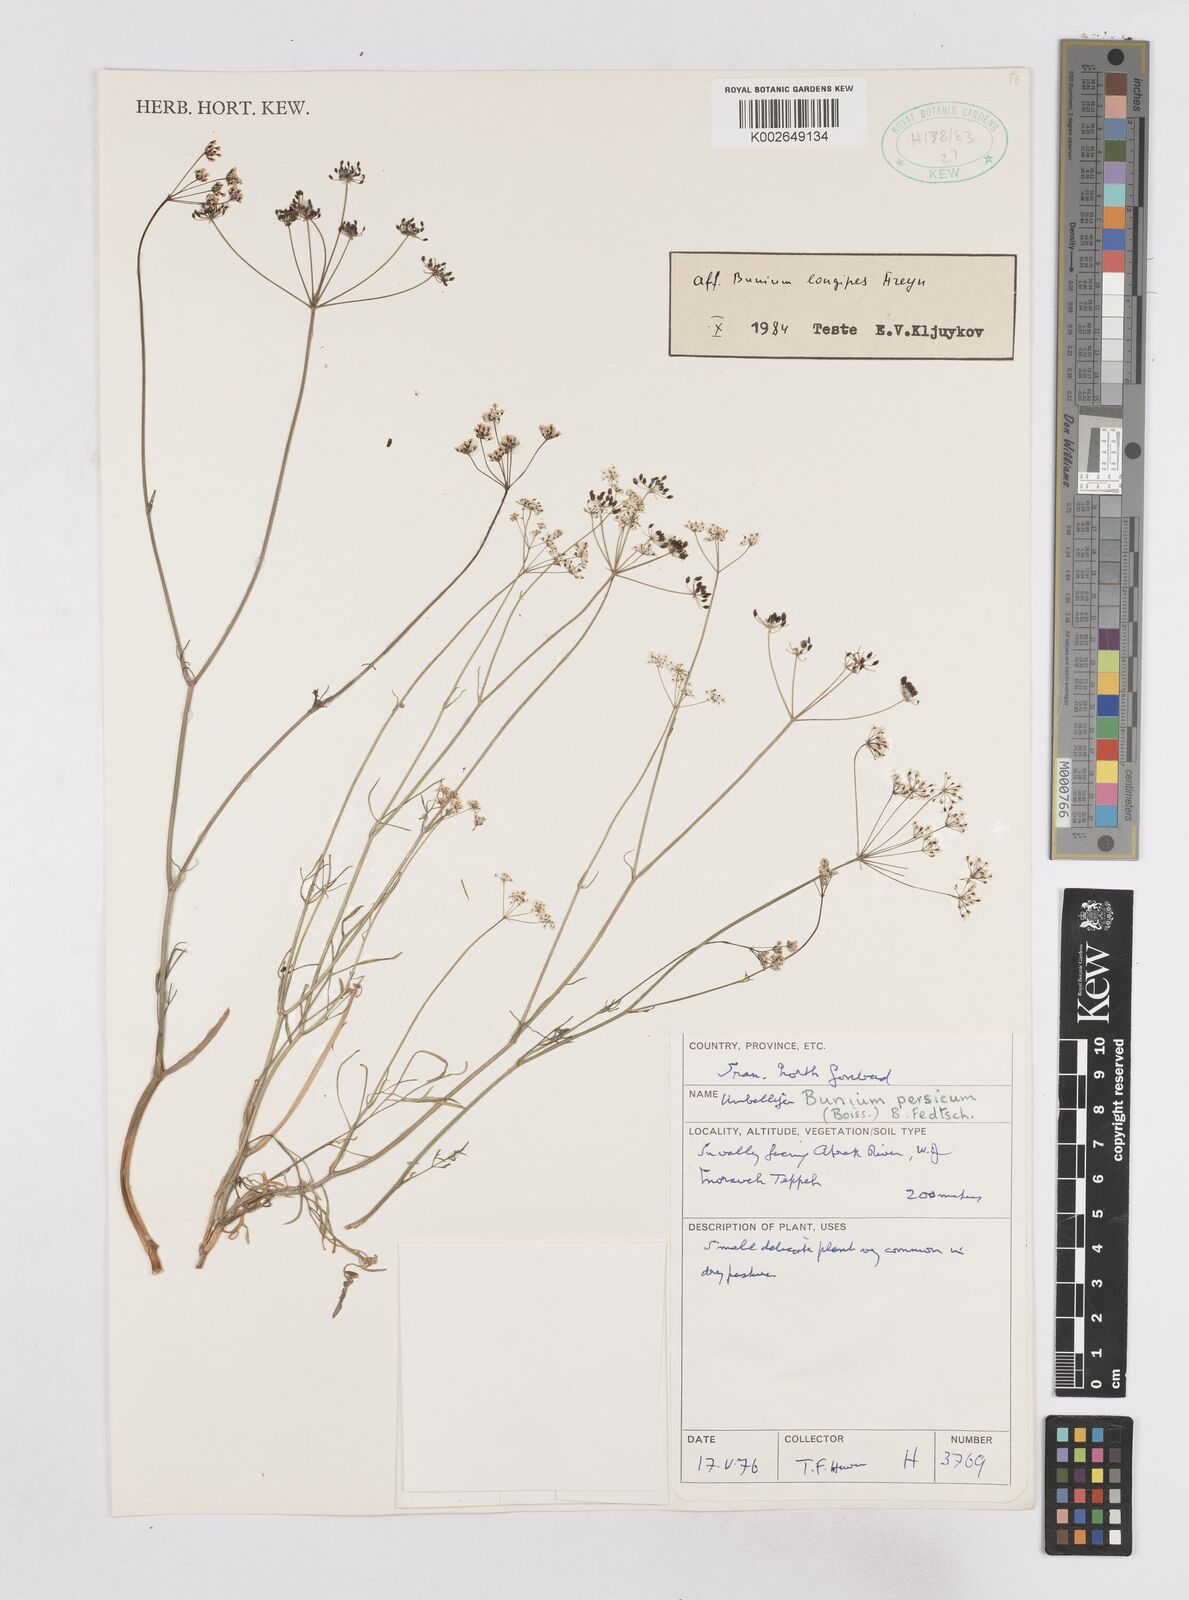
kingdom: Plantae
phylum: Tracheophyta
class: Magnoliopsida
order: Apiales
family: Apiaceae
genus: Elwendia
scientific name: Elwendia longipes
